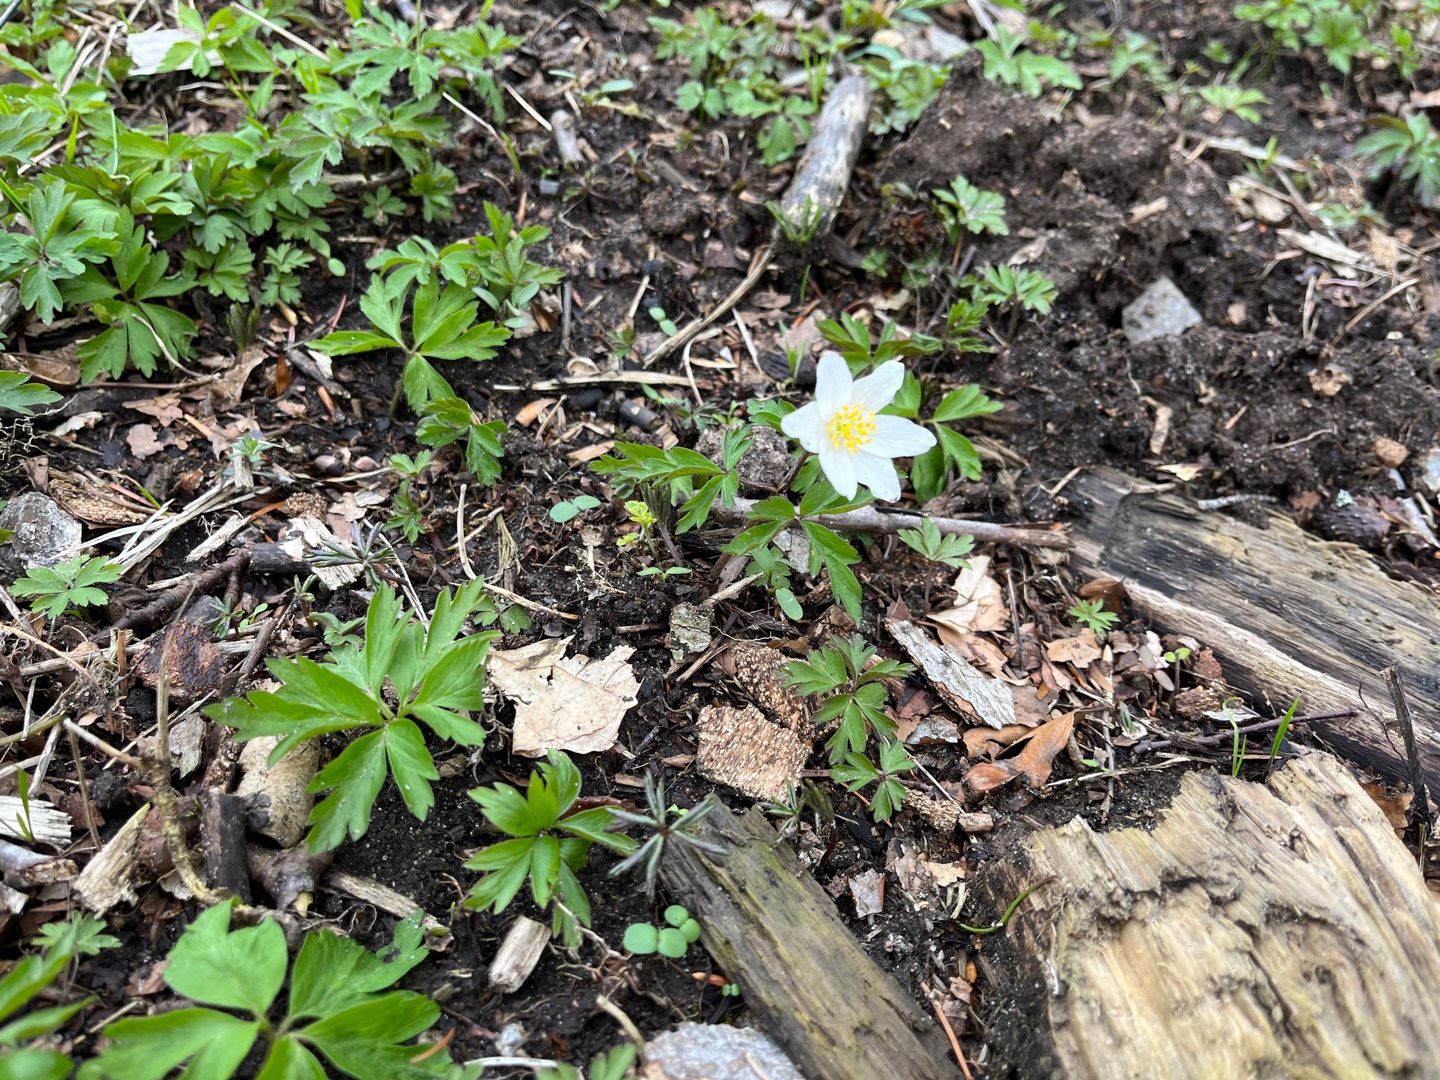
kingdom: Plantae
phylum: Tracheophyta
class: Magnoliopsida
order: Ranunculales
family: Ranunculaceae
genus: Anemone
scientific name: Anemone nemorosa
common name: Hvid anemone
